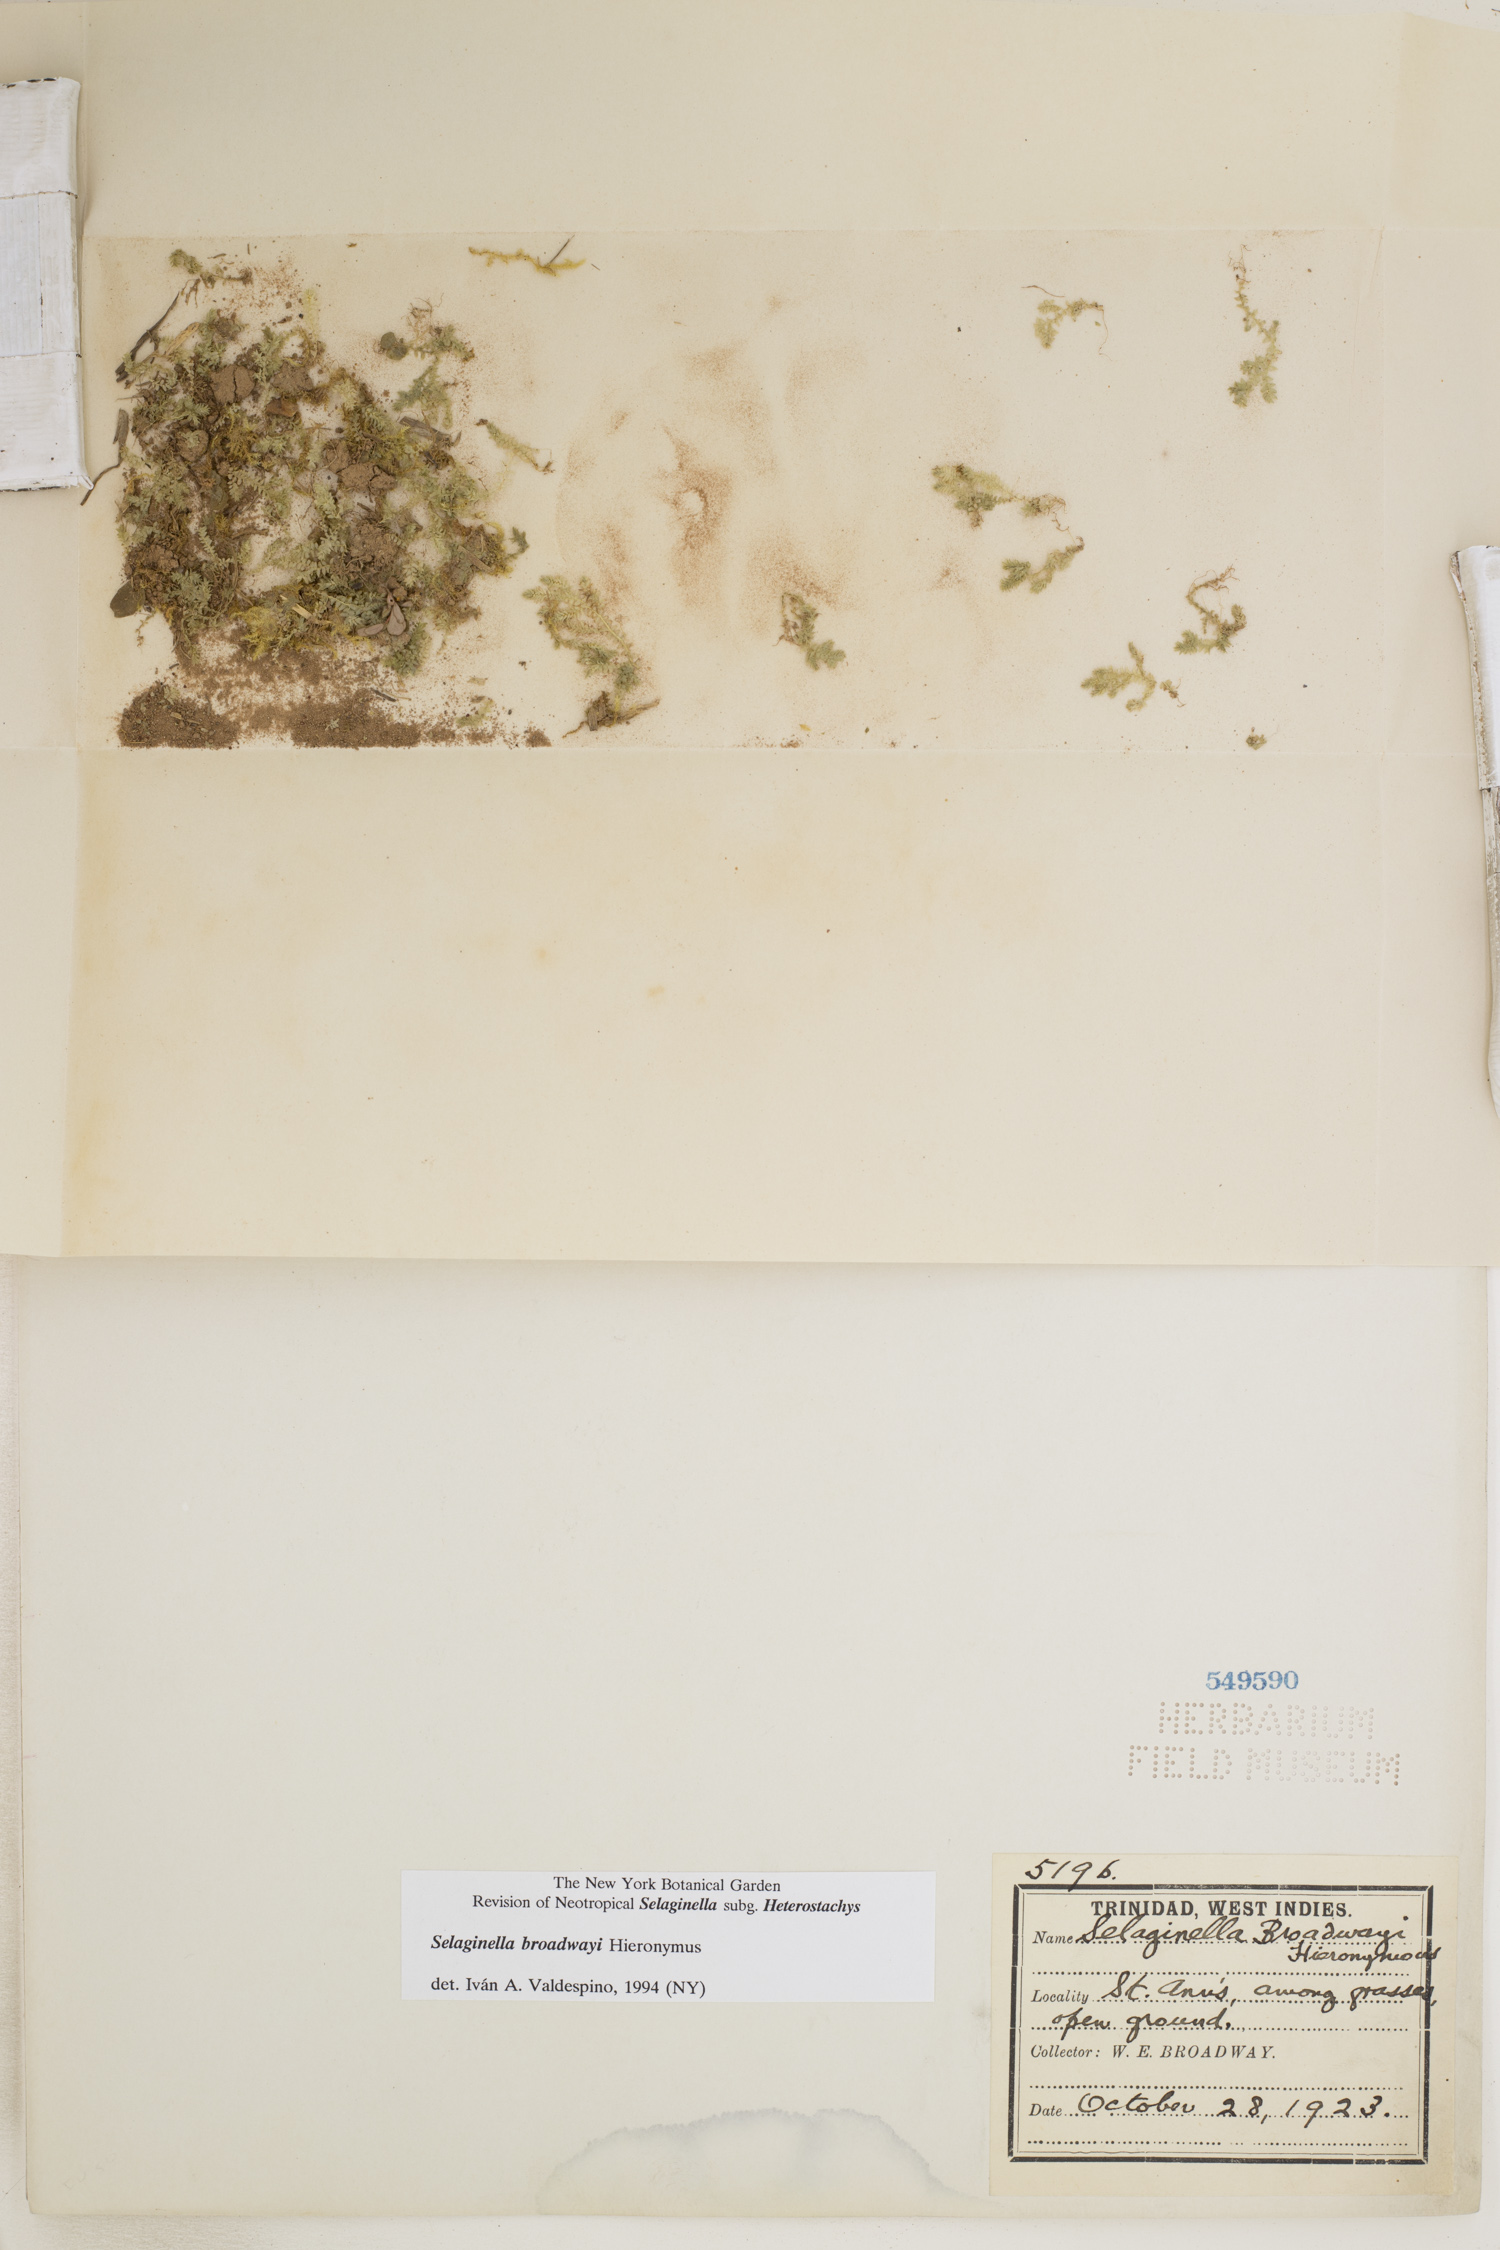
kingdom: Plantae
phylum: Tracheophyta
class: Lycopodiopsida
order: Selaginellales
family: Selaginellaceae
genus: Selaginella
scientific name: Selaginella minima
